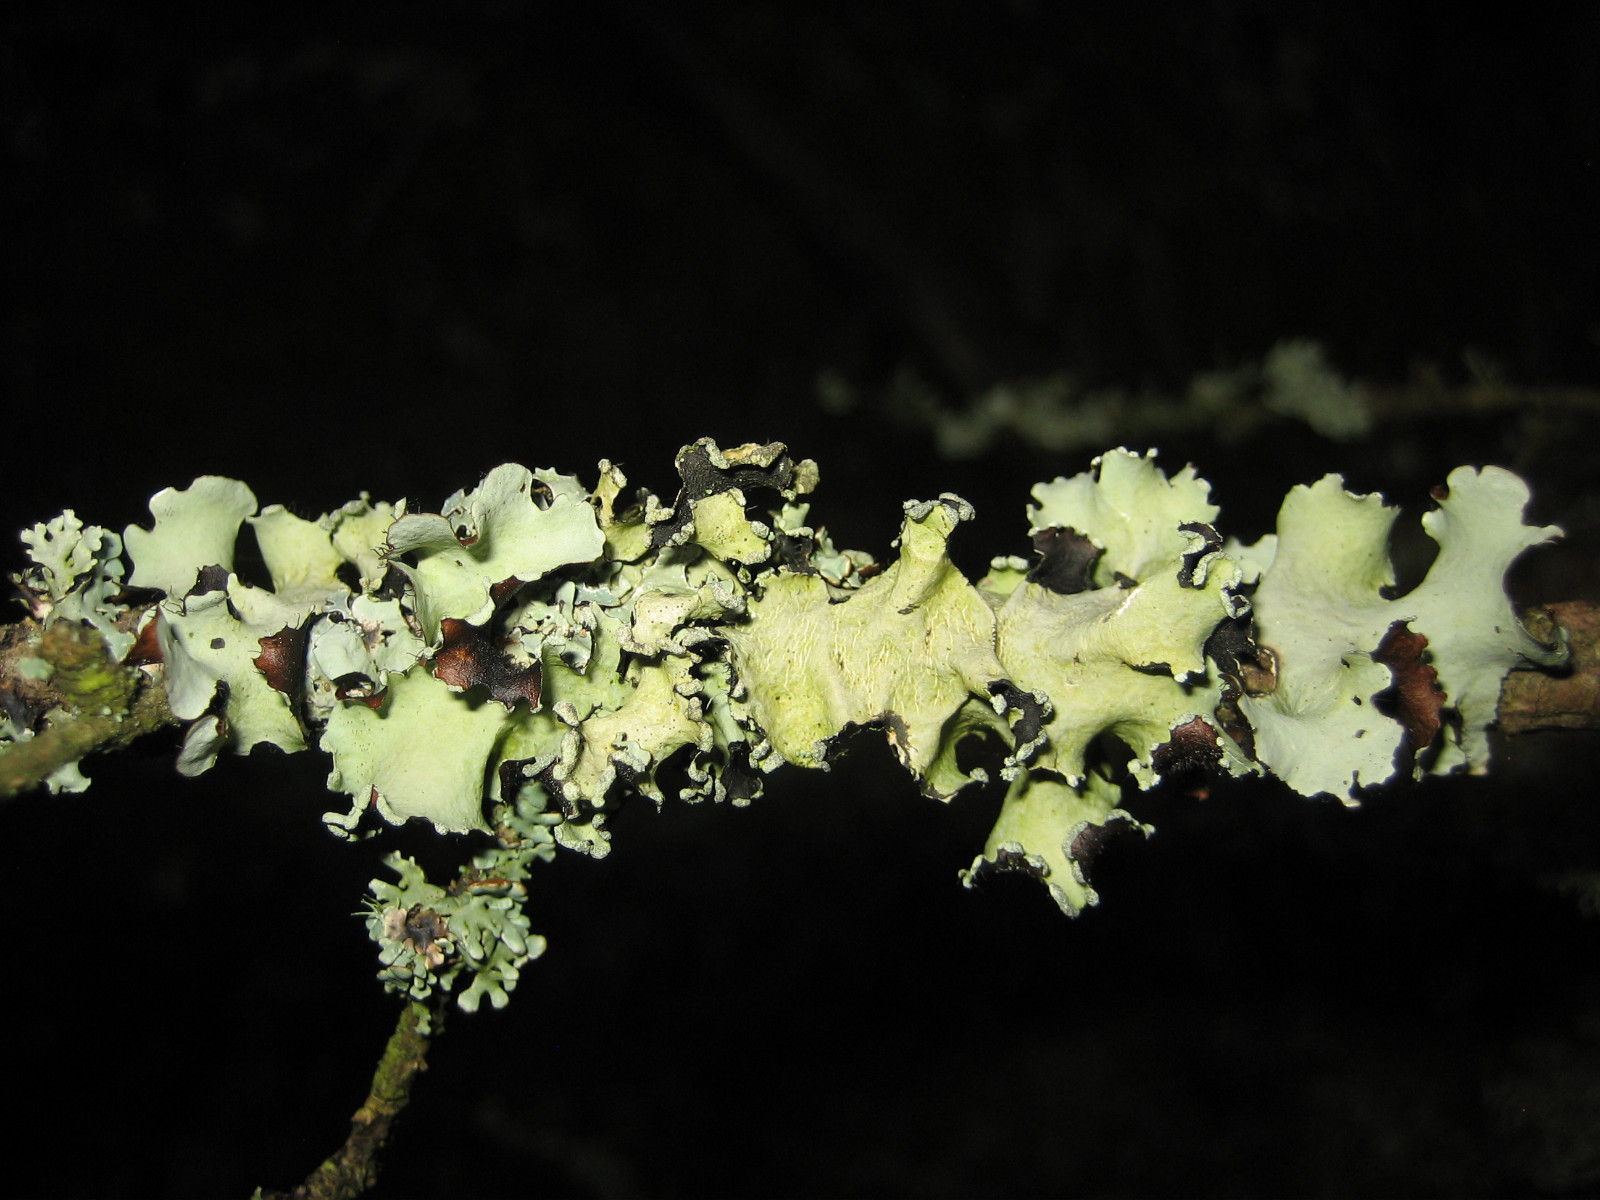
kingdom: Fungi
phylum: Ascomycota
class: Lecanoromycetes
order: Lecanorales
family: Parmeliaceae
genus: Parmotrema
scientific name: Parmotrema perlatum
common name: trådet skållav
